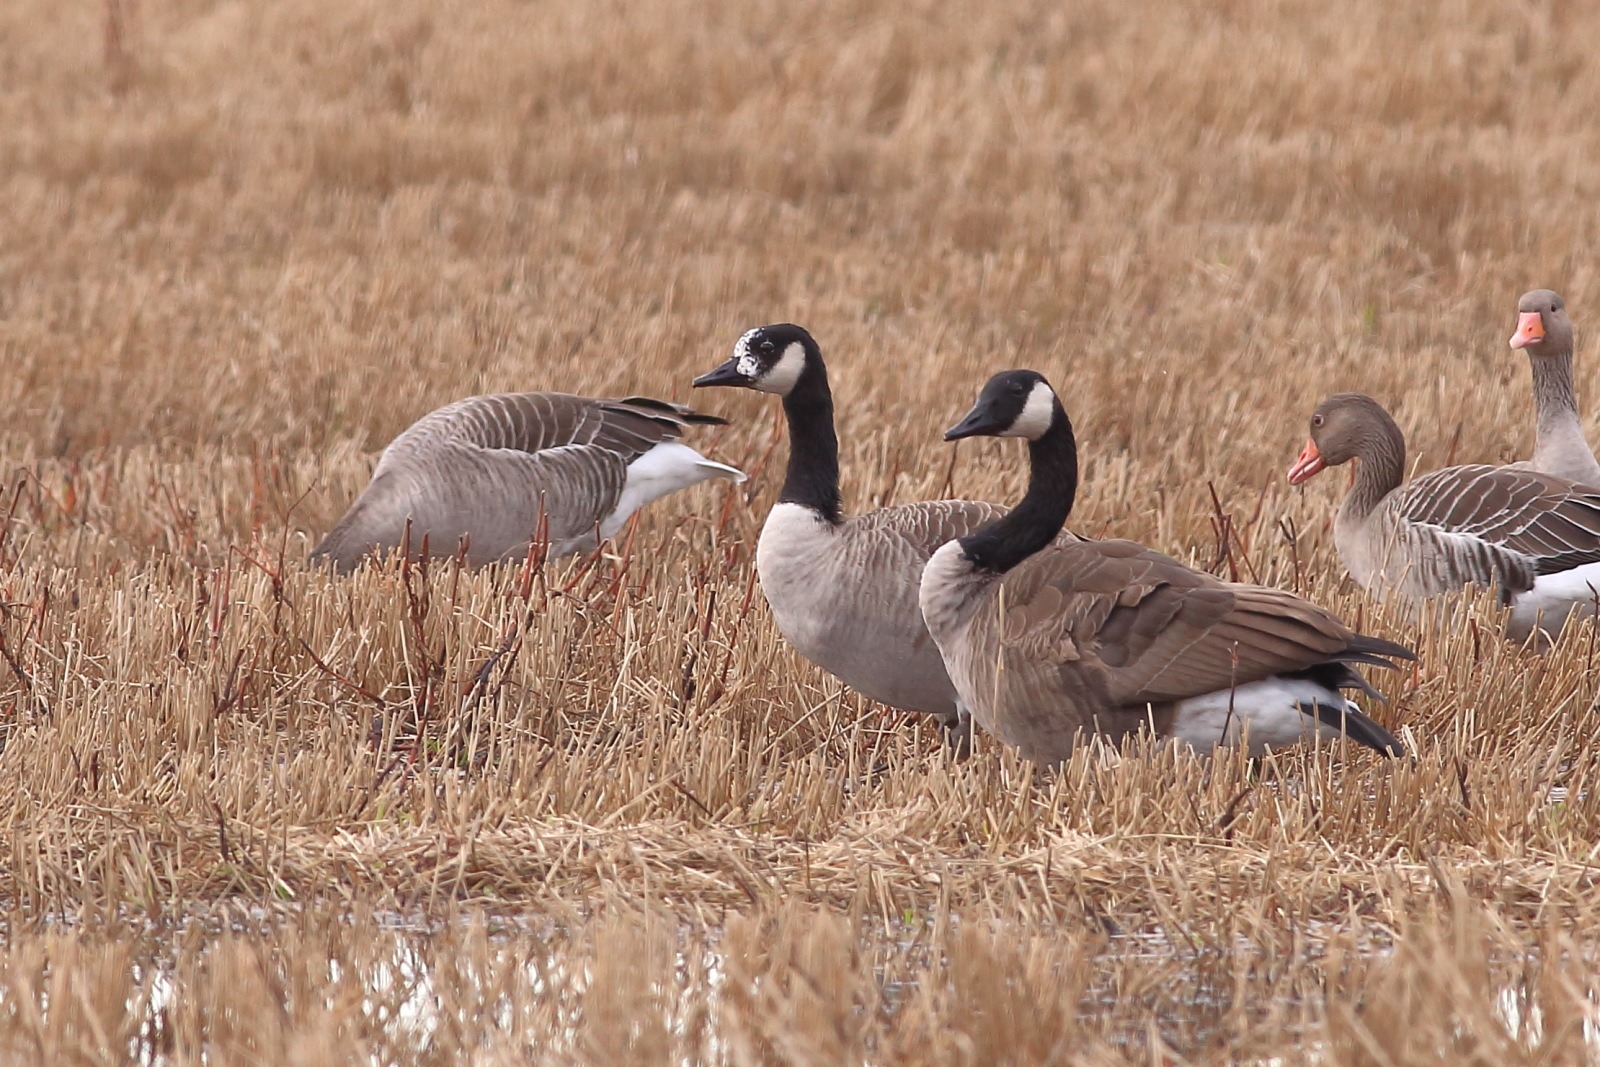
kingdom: Animalia
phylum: Chordata
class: Aves
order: Anseriformes
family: Anatidae
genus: Branta
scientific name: Branta canadensis
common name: Canadagås
